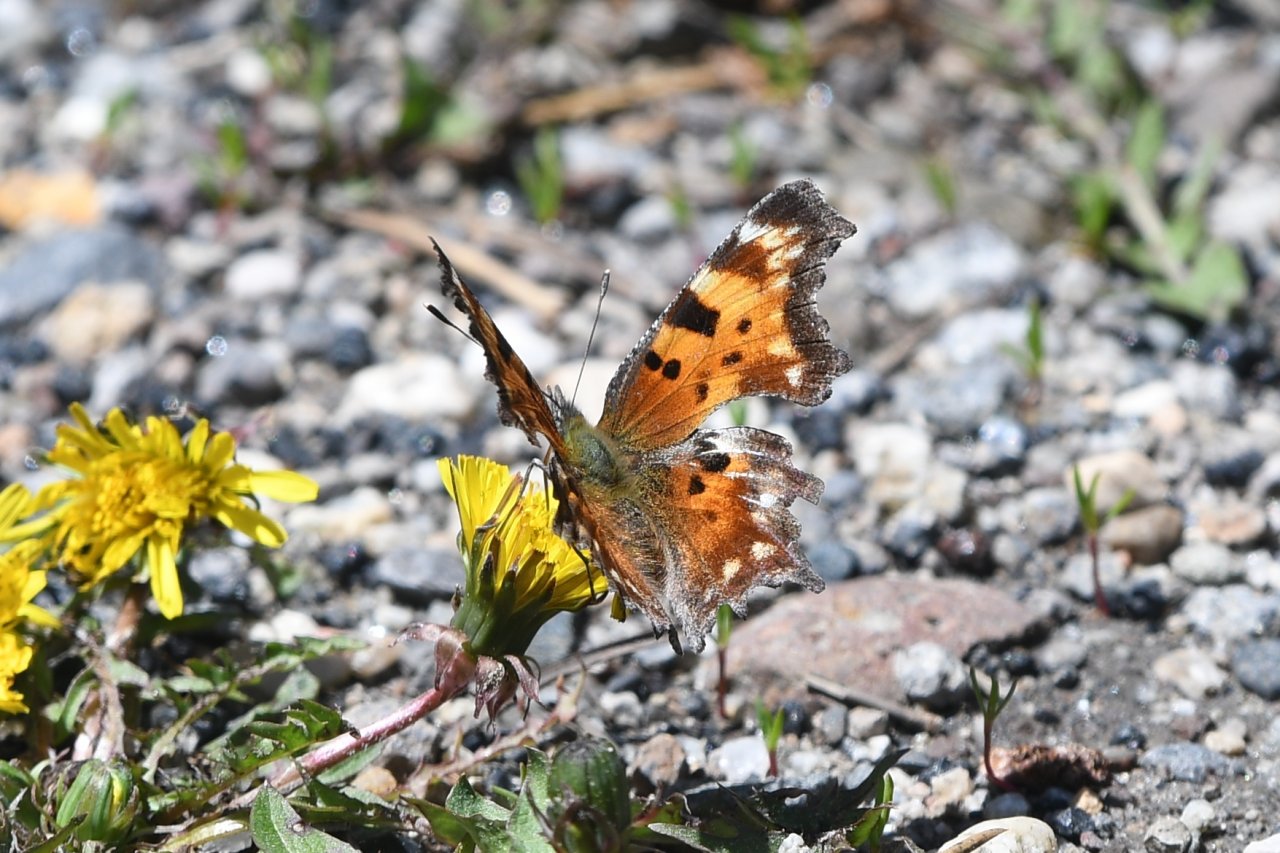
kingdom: Animalia
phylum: Arthropoda
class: Insecta
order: Lepidoptera
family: Nymphalidae
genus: Polygonia
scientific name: Polygonia faunus
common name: Green Comma
